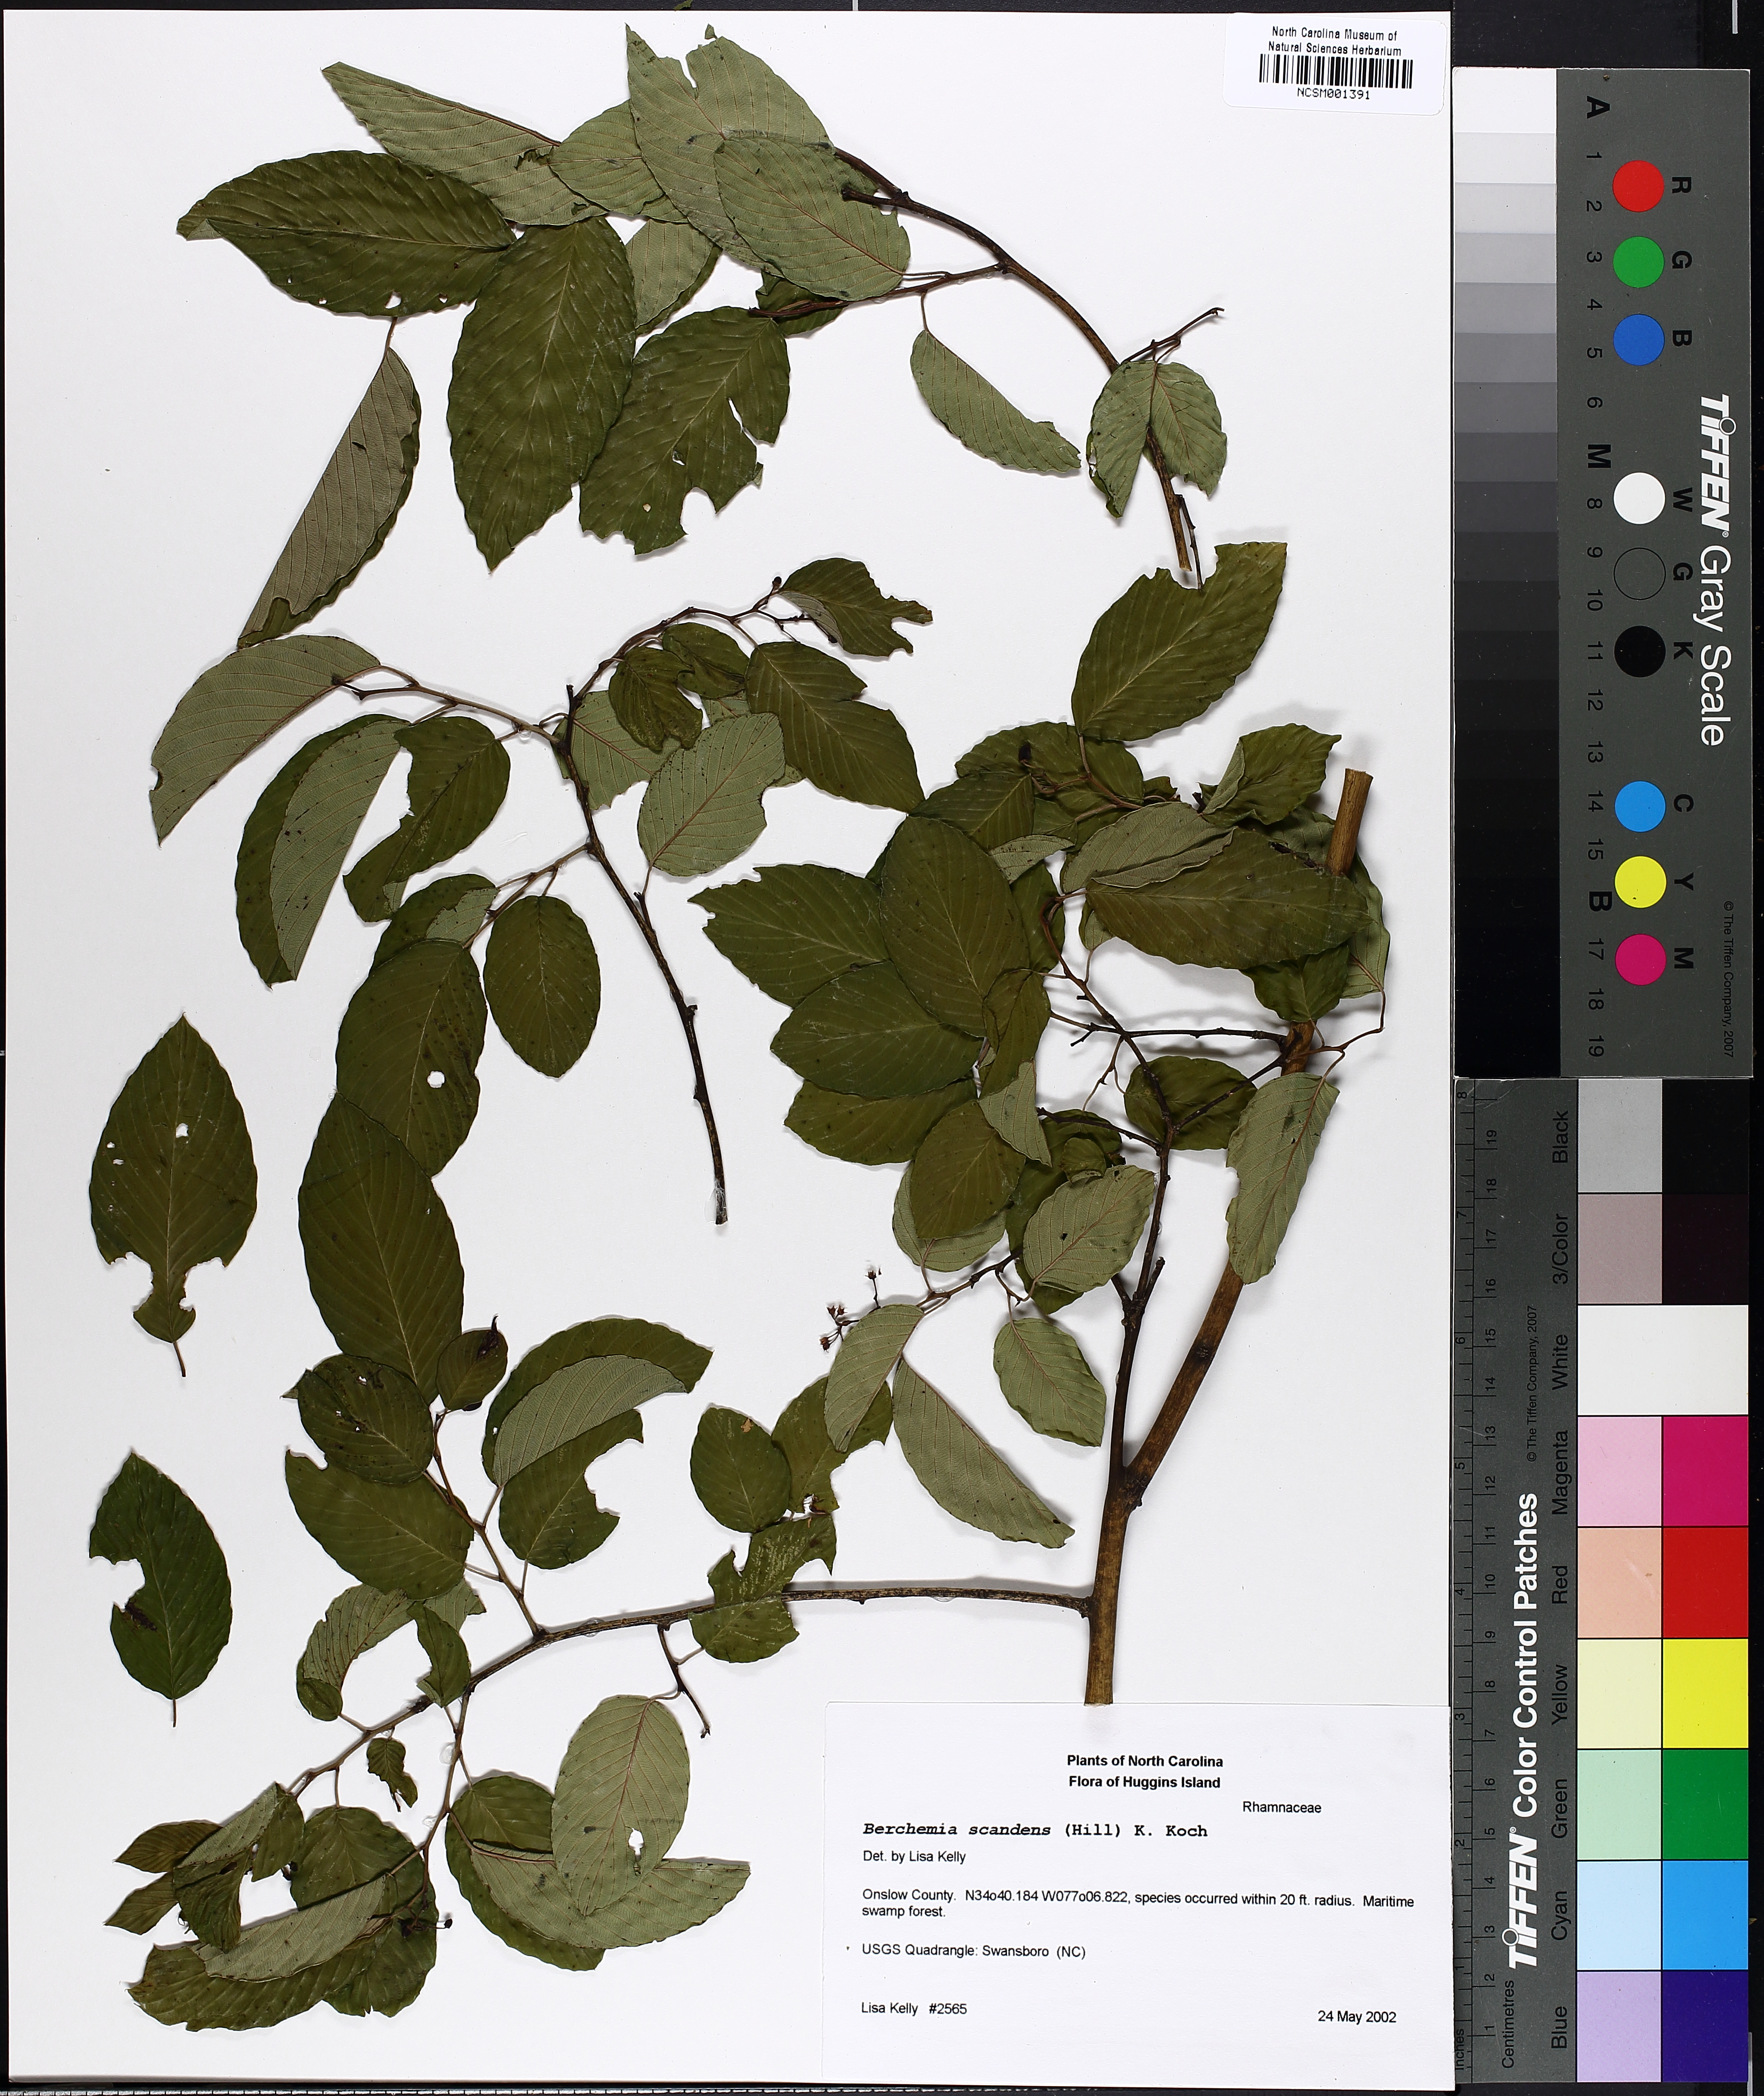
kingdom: Plantae
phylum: Tracheophyta
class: Magnoliopsida
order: Rosales
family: Rhamnaceae
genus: Berchemia
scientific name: Berchemia scandens
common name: Supplejack
